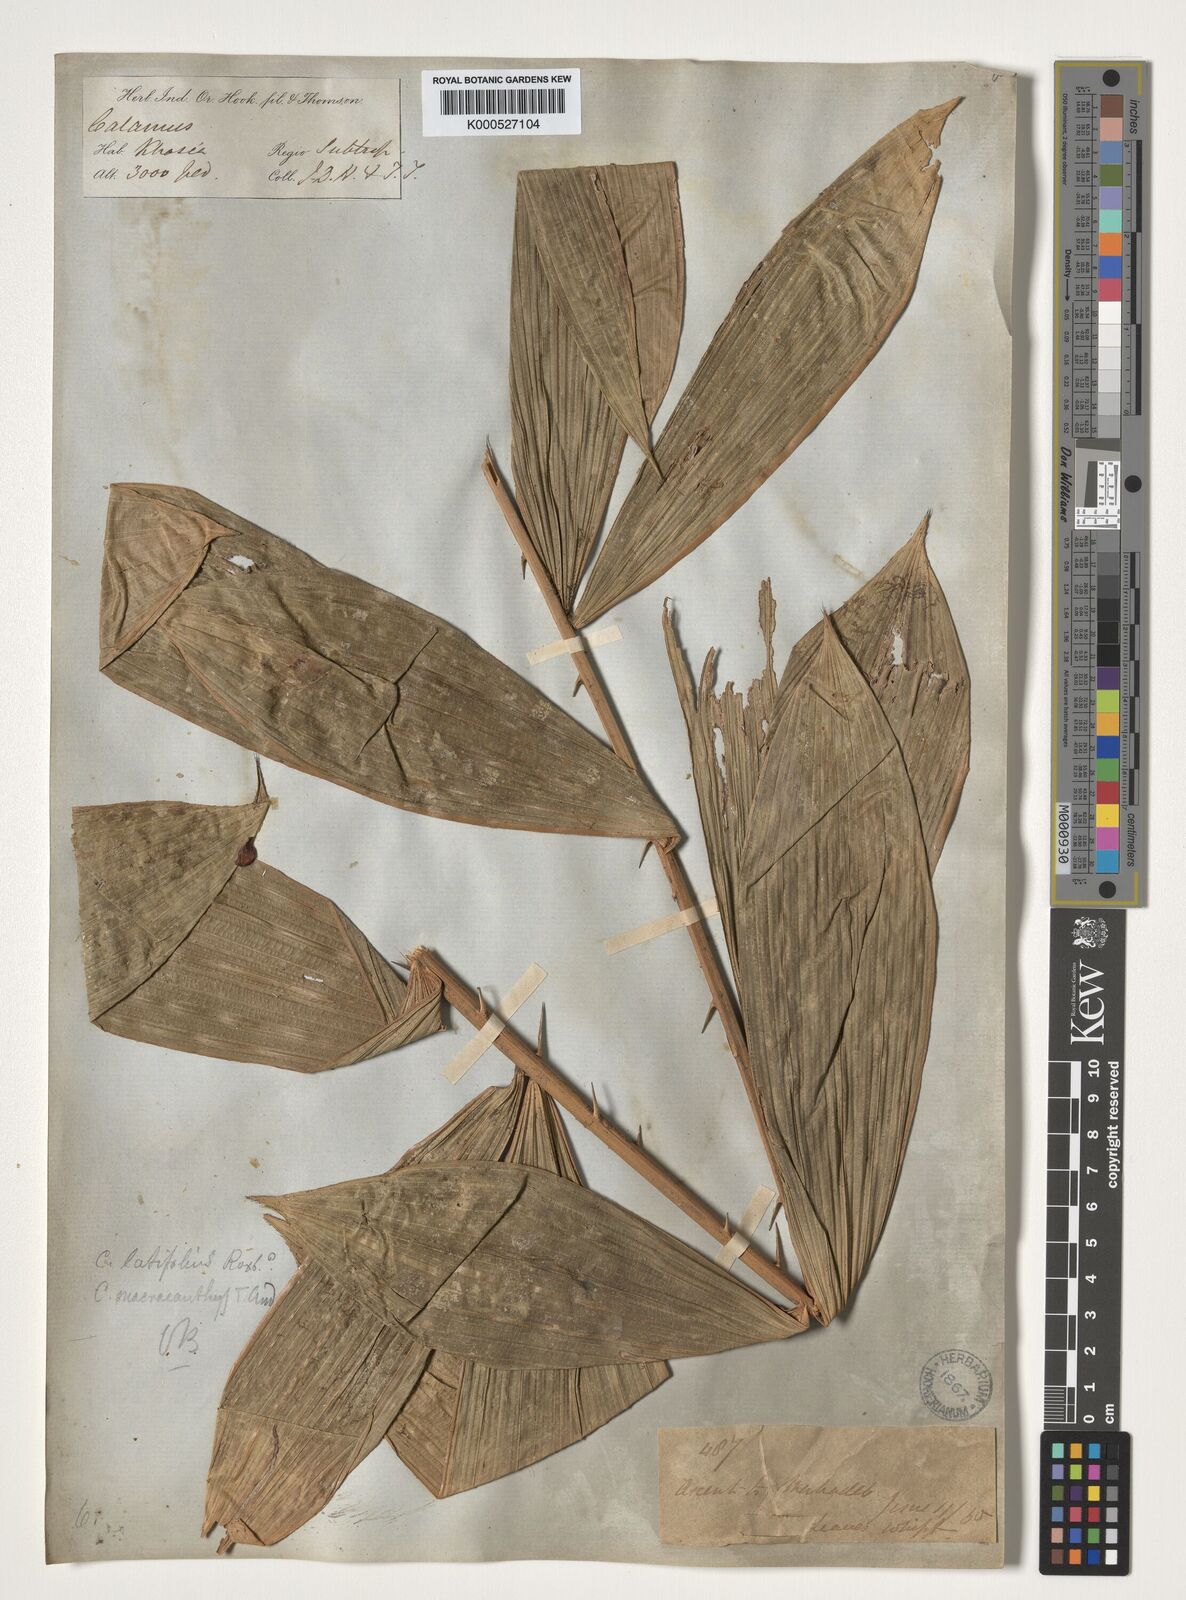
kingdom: Plantae
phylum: Tracheophyta
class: Liliopsida
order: Arecales
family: Arecaceae
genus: Calamus
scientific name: Calamus latifolius
